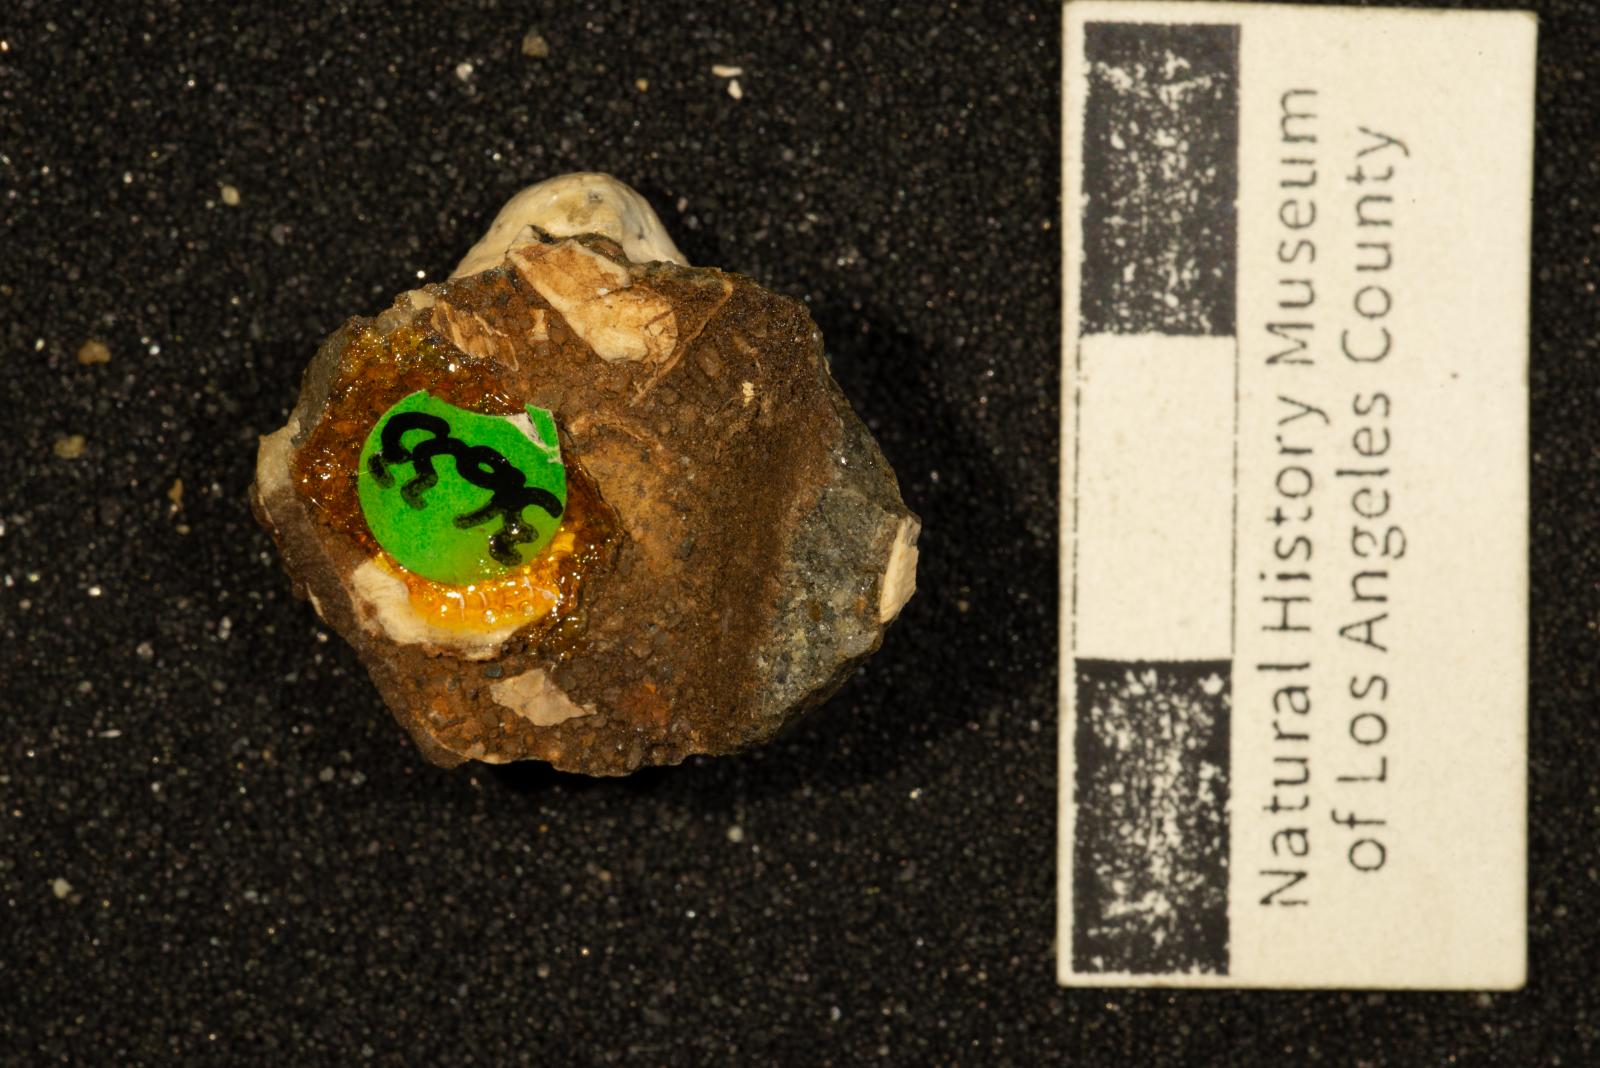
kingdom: Animalia
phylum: Mollusca
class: Bivalvia
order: Adapedonta
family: Edmondiidae
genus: Clisocolus
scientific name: Clisocolus dubius
